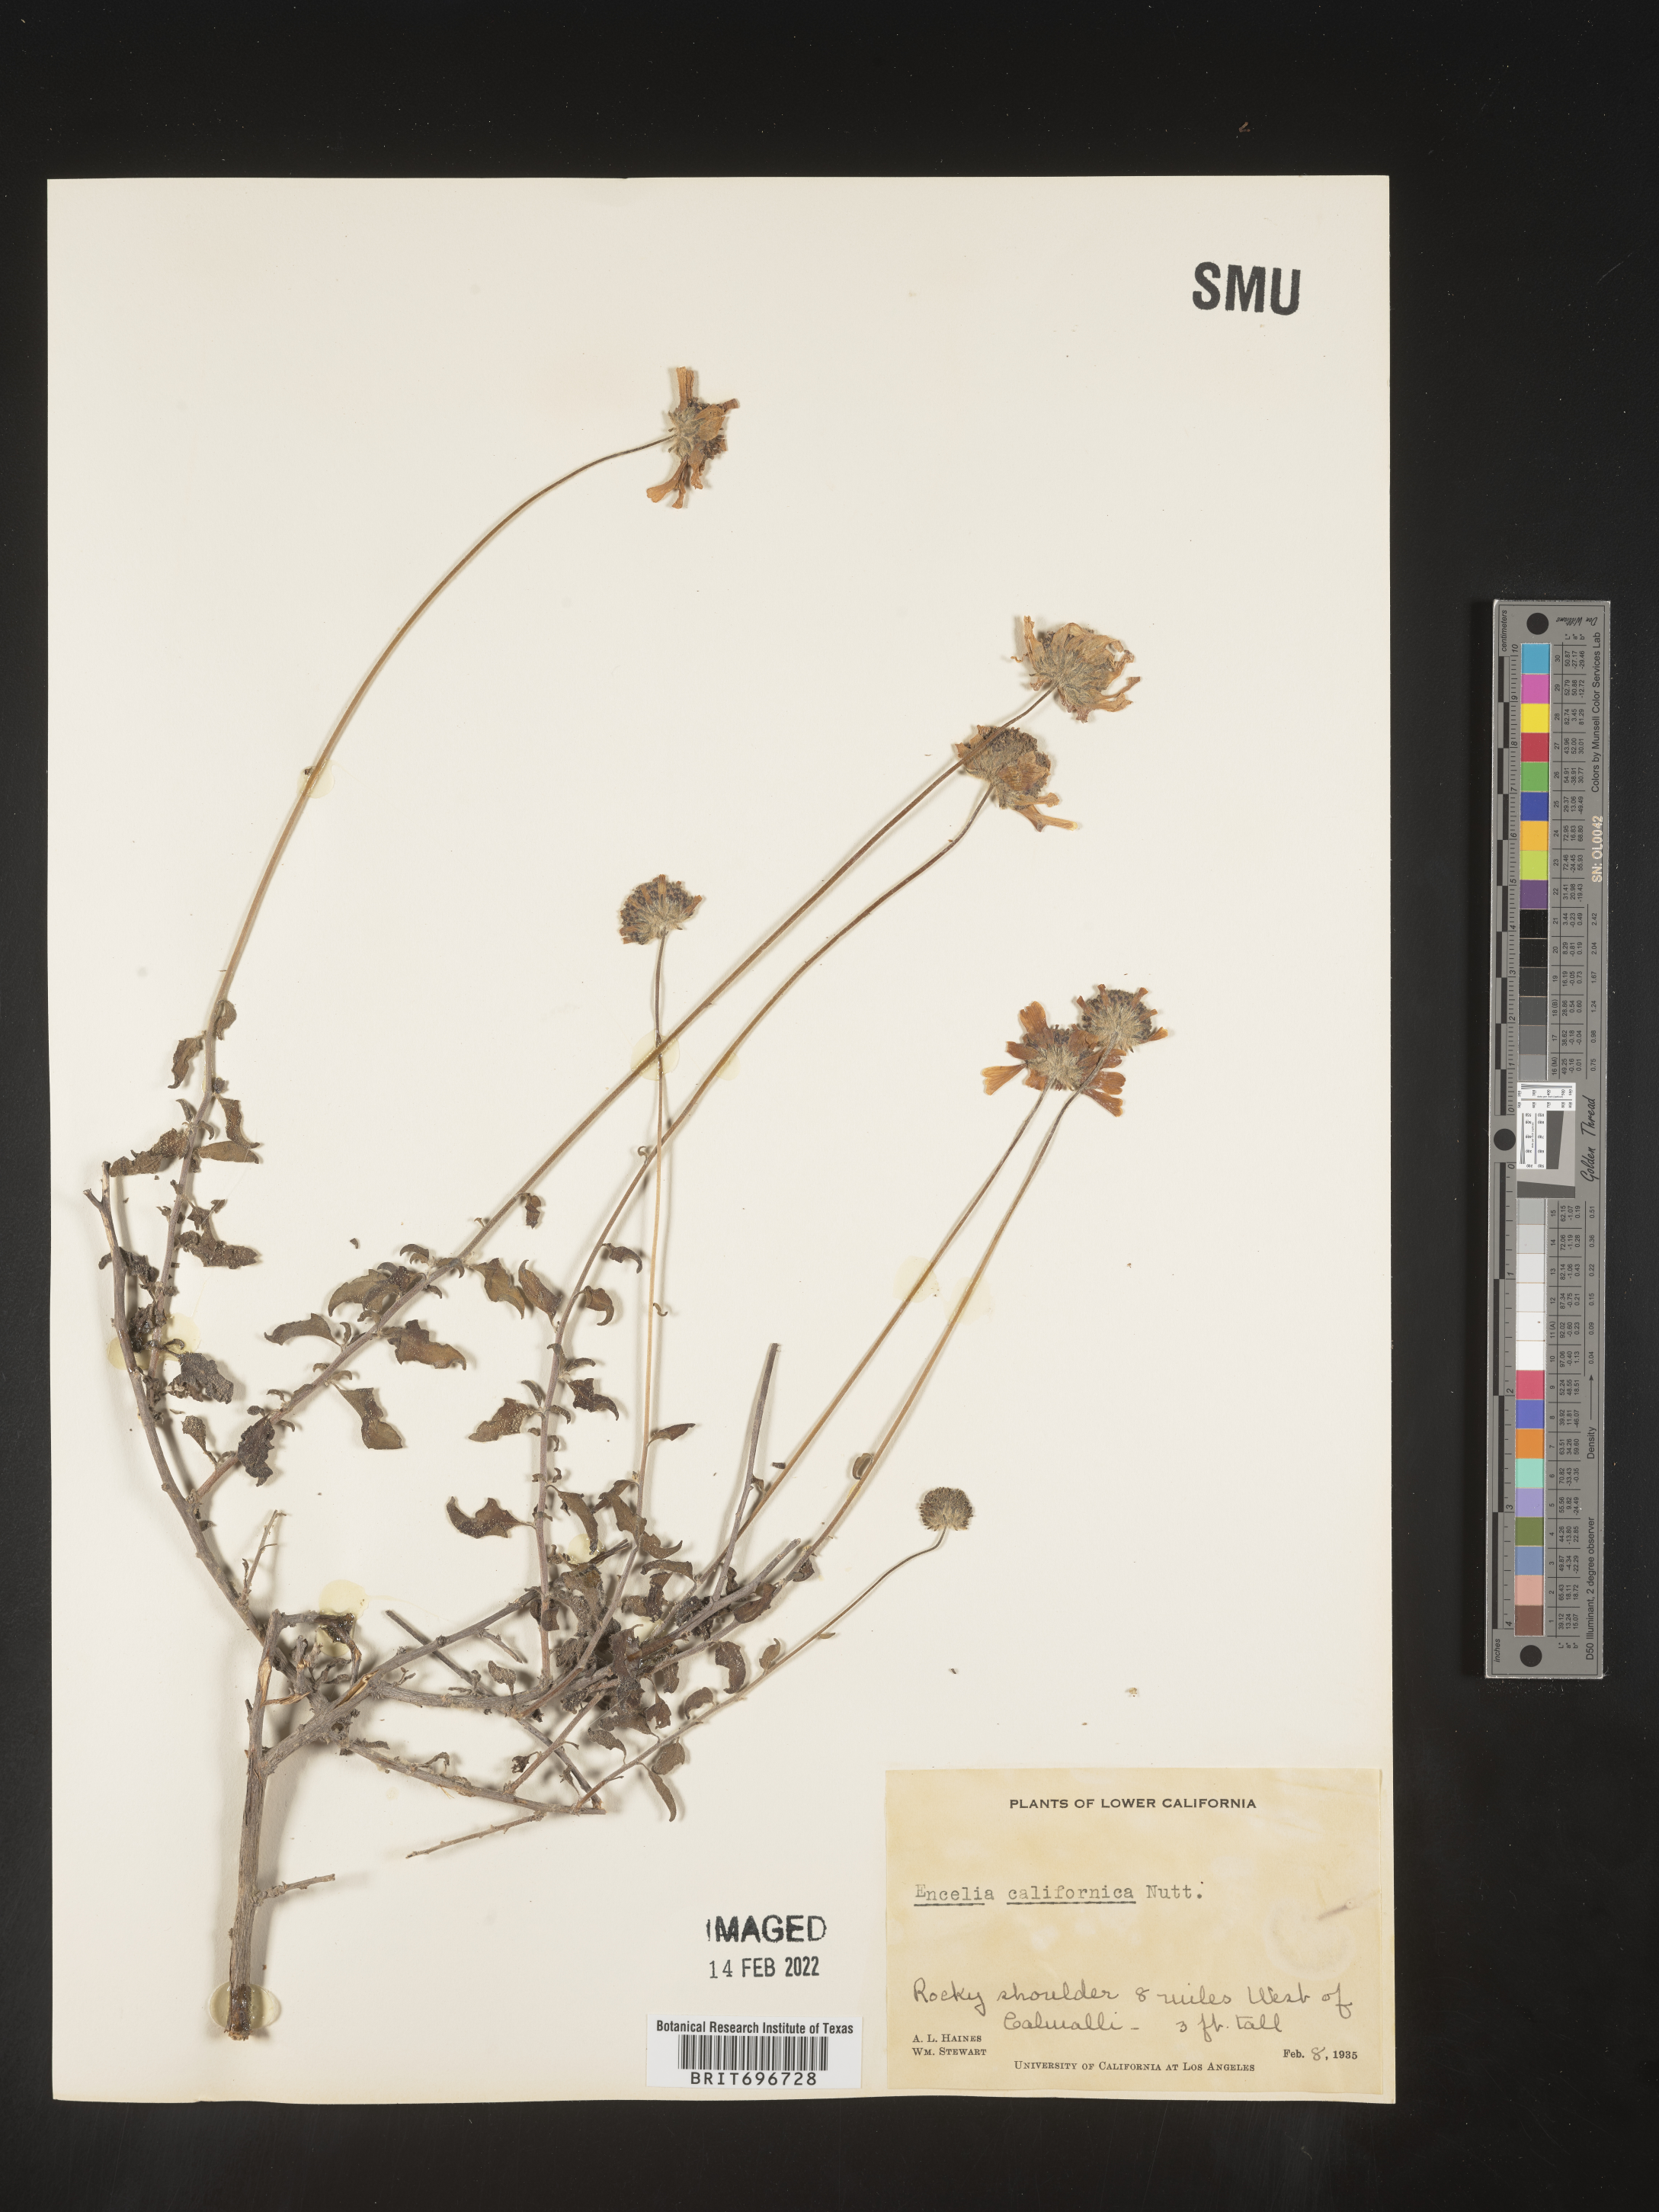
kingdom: Plantae
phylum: Tracheophyta
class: Magnoliopsida
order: Asterales
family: Asteraceae
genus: Encelia
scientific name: Encelia
